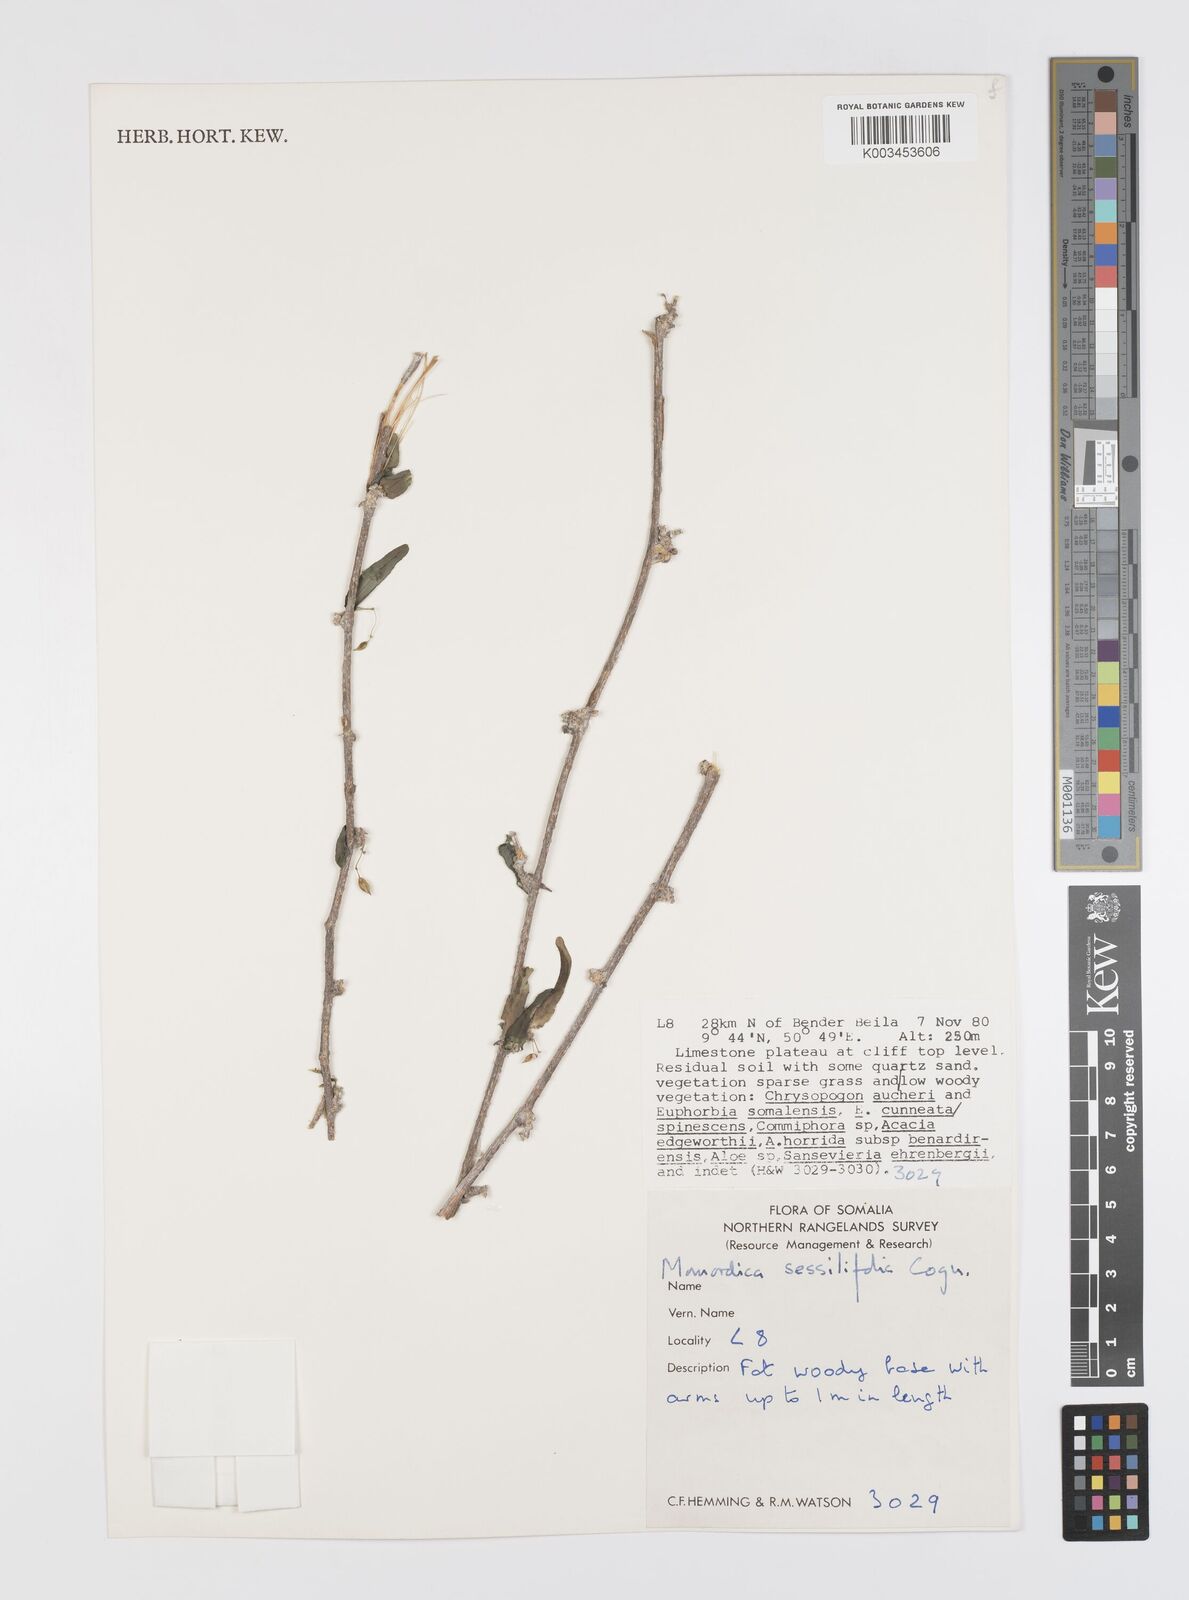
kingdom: Plantae
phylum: Tracheophyta
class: Magnoliopsida
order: Cucurbitales
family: Cucurbitaceae
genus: Momordica
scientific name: Momordica sessilifolia
